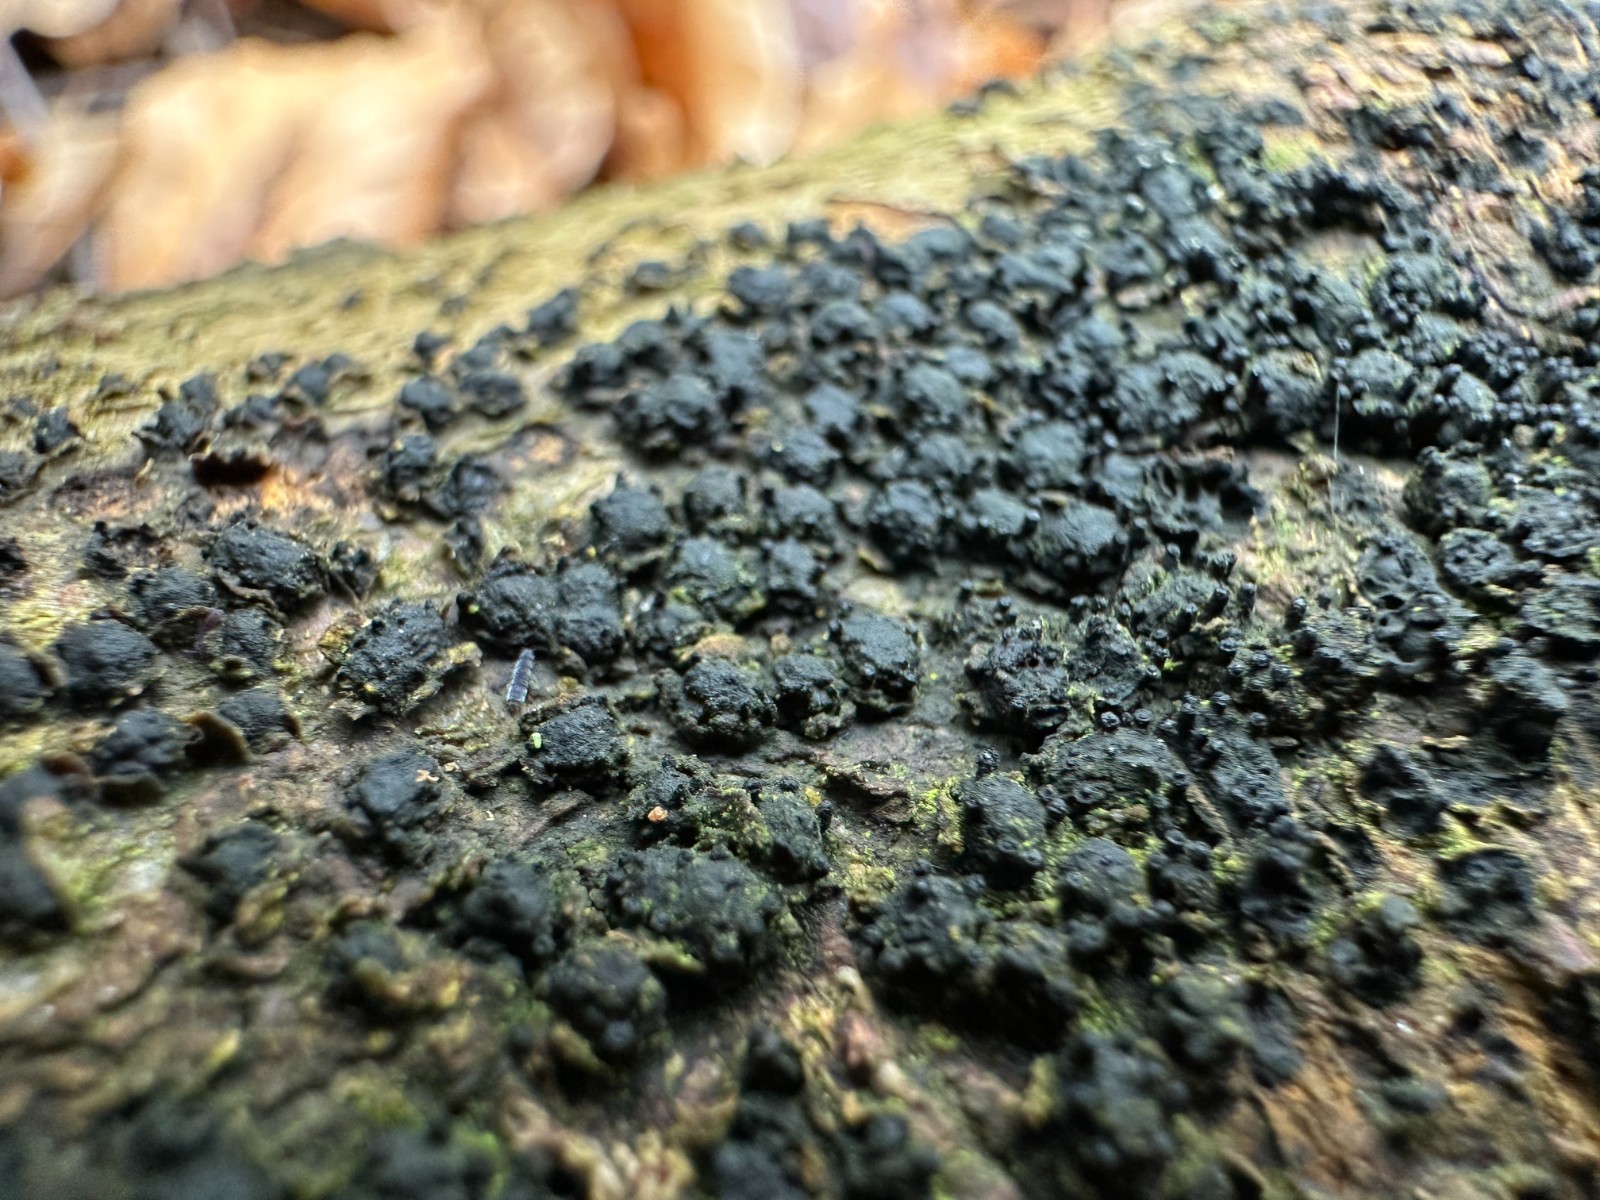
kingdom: Fungi
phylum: Ascomycota
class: Sordariomycetes
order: Xylariales
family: Melogrammataceae
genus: Melogramma
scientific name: Melogramma spiniferum
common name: bøgefod-kulhals
